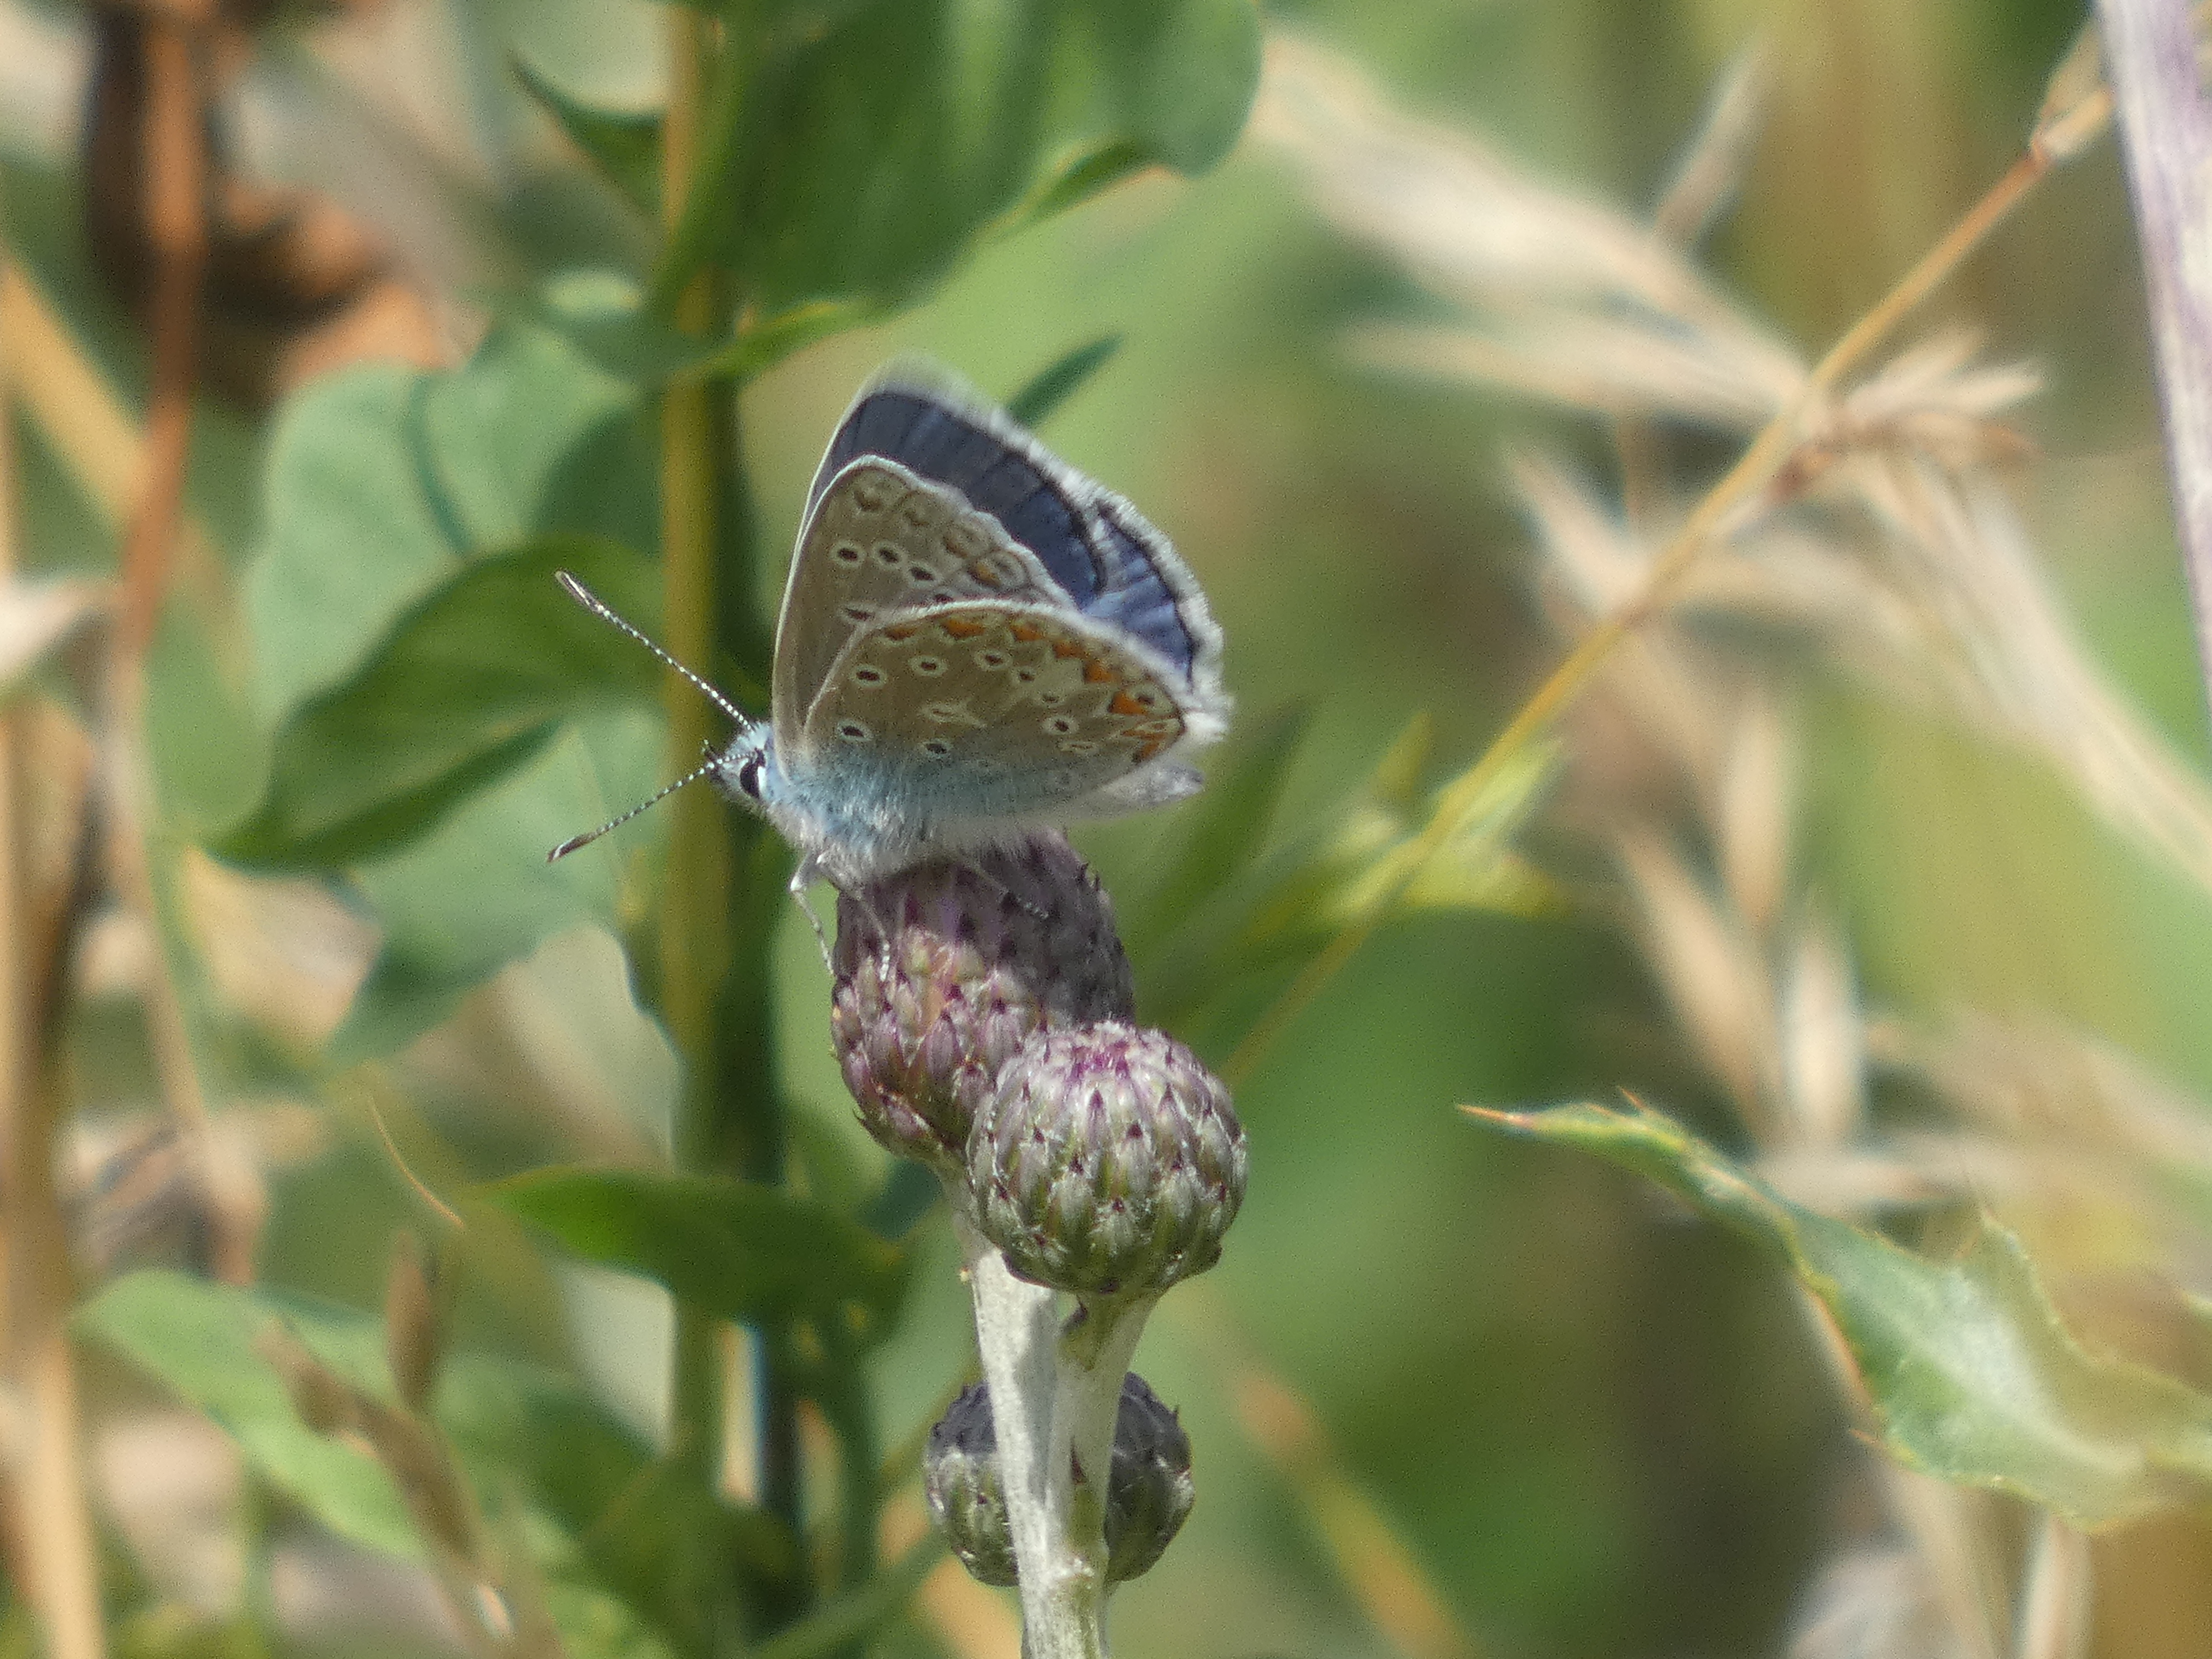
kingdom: Animalia
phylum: Arthropoda
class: Insecta
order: Lepidoptera
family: Lycaenidae
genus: Polyommatus
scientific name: Polyommatus icarus
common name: Almindelig blåfugl
